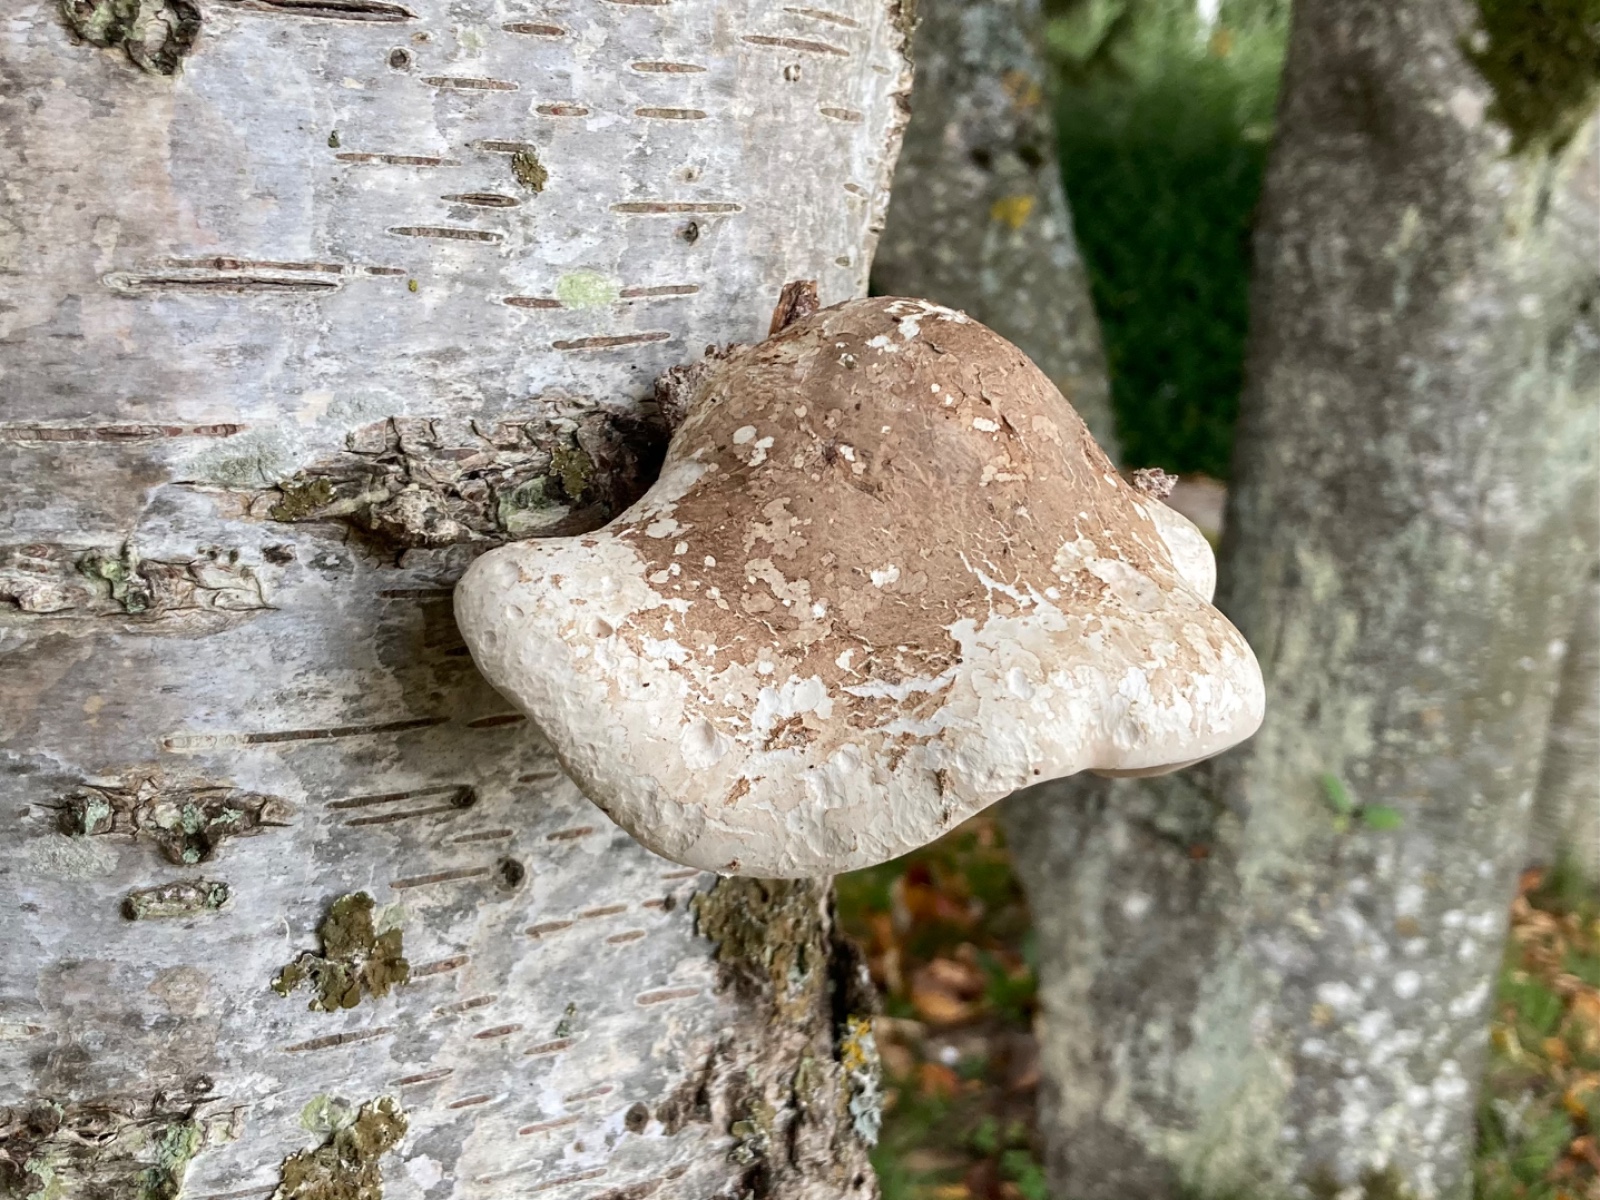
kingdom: Fungi
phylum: Basidiomycota
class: Agaricomycetes
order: Polyporales
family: Fomitopsidaceae
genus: Fomitopsis
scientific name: Fomitopsis betulina
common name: birkeporesvamp
